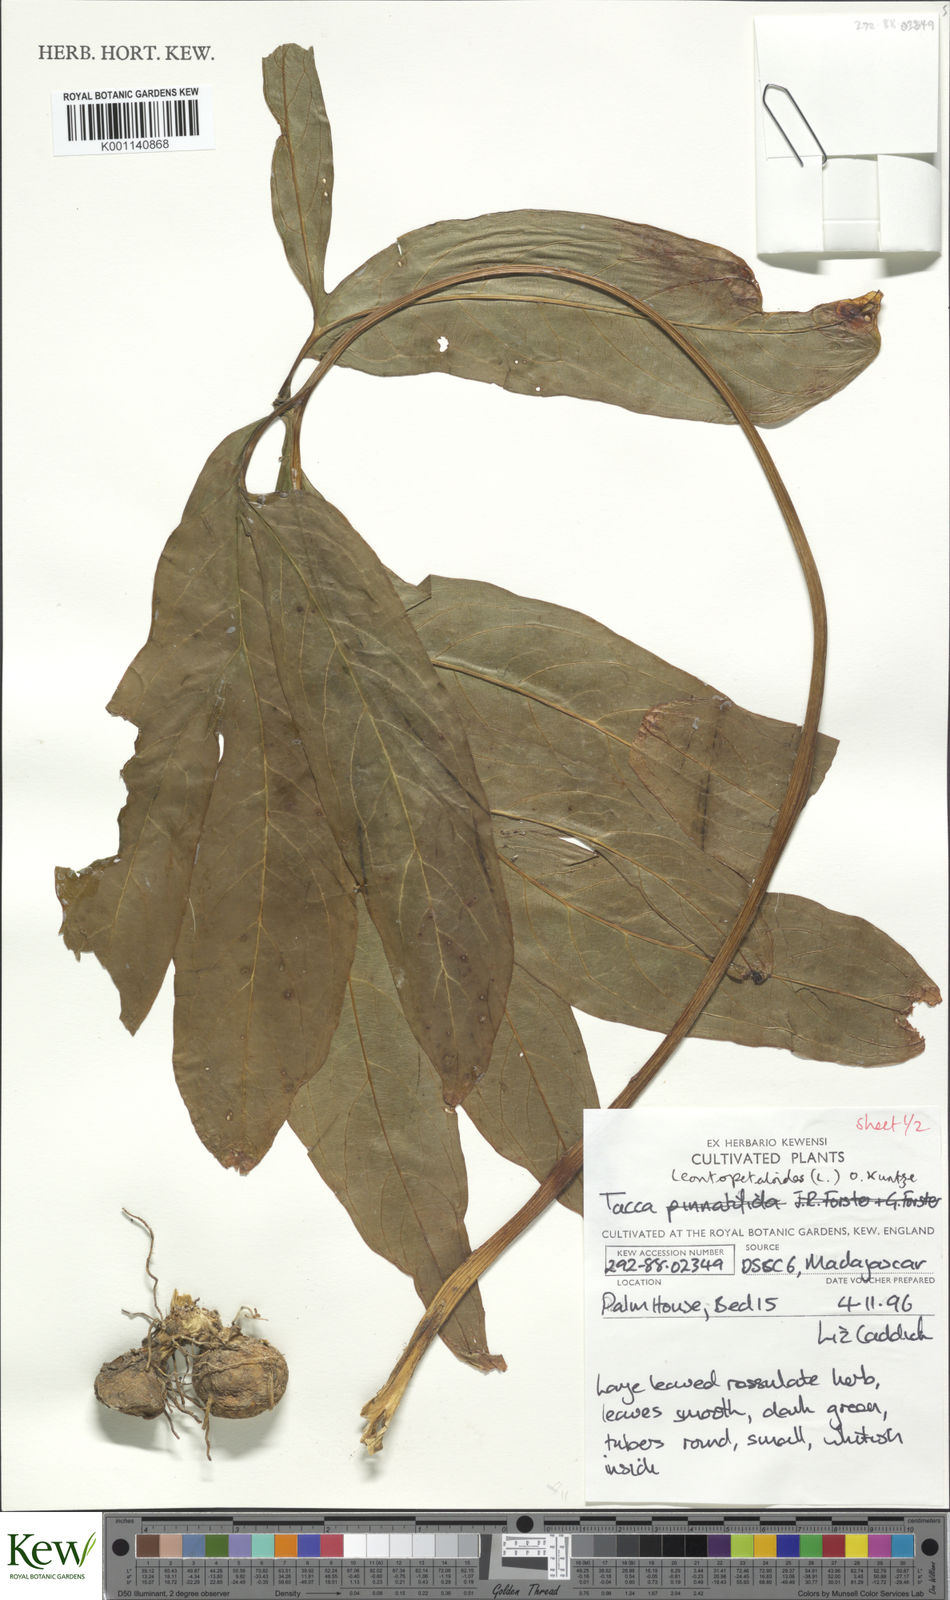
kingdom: Plantae
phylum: Tracheophyta
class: Liliopsida
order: Dioscoreales
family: Dioscoreaceae
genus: Tacca
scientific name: Tacca leontopetaloides
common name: Arrowroot
